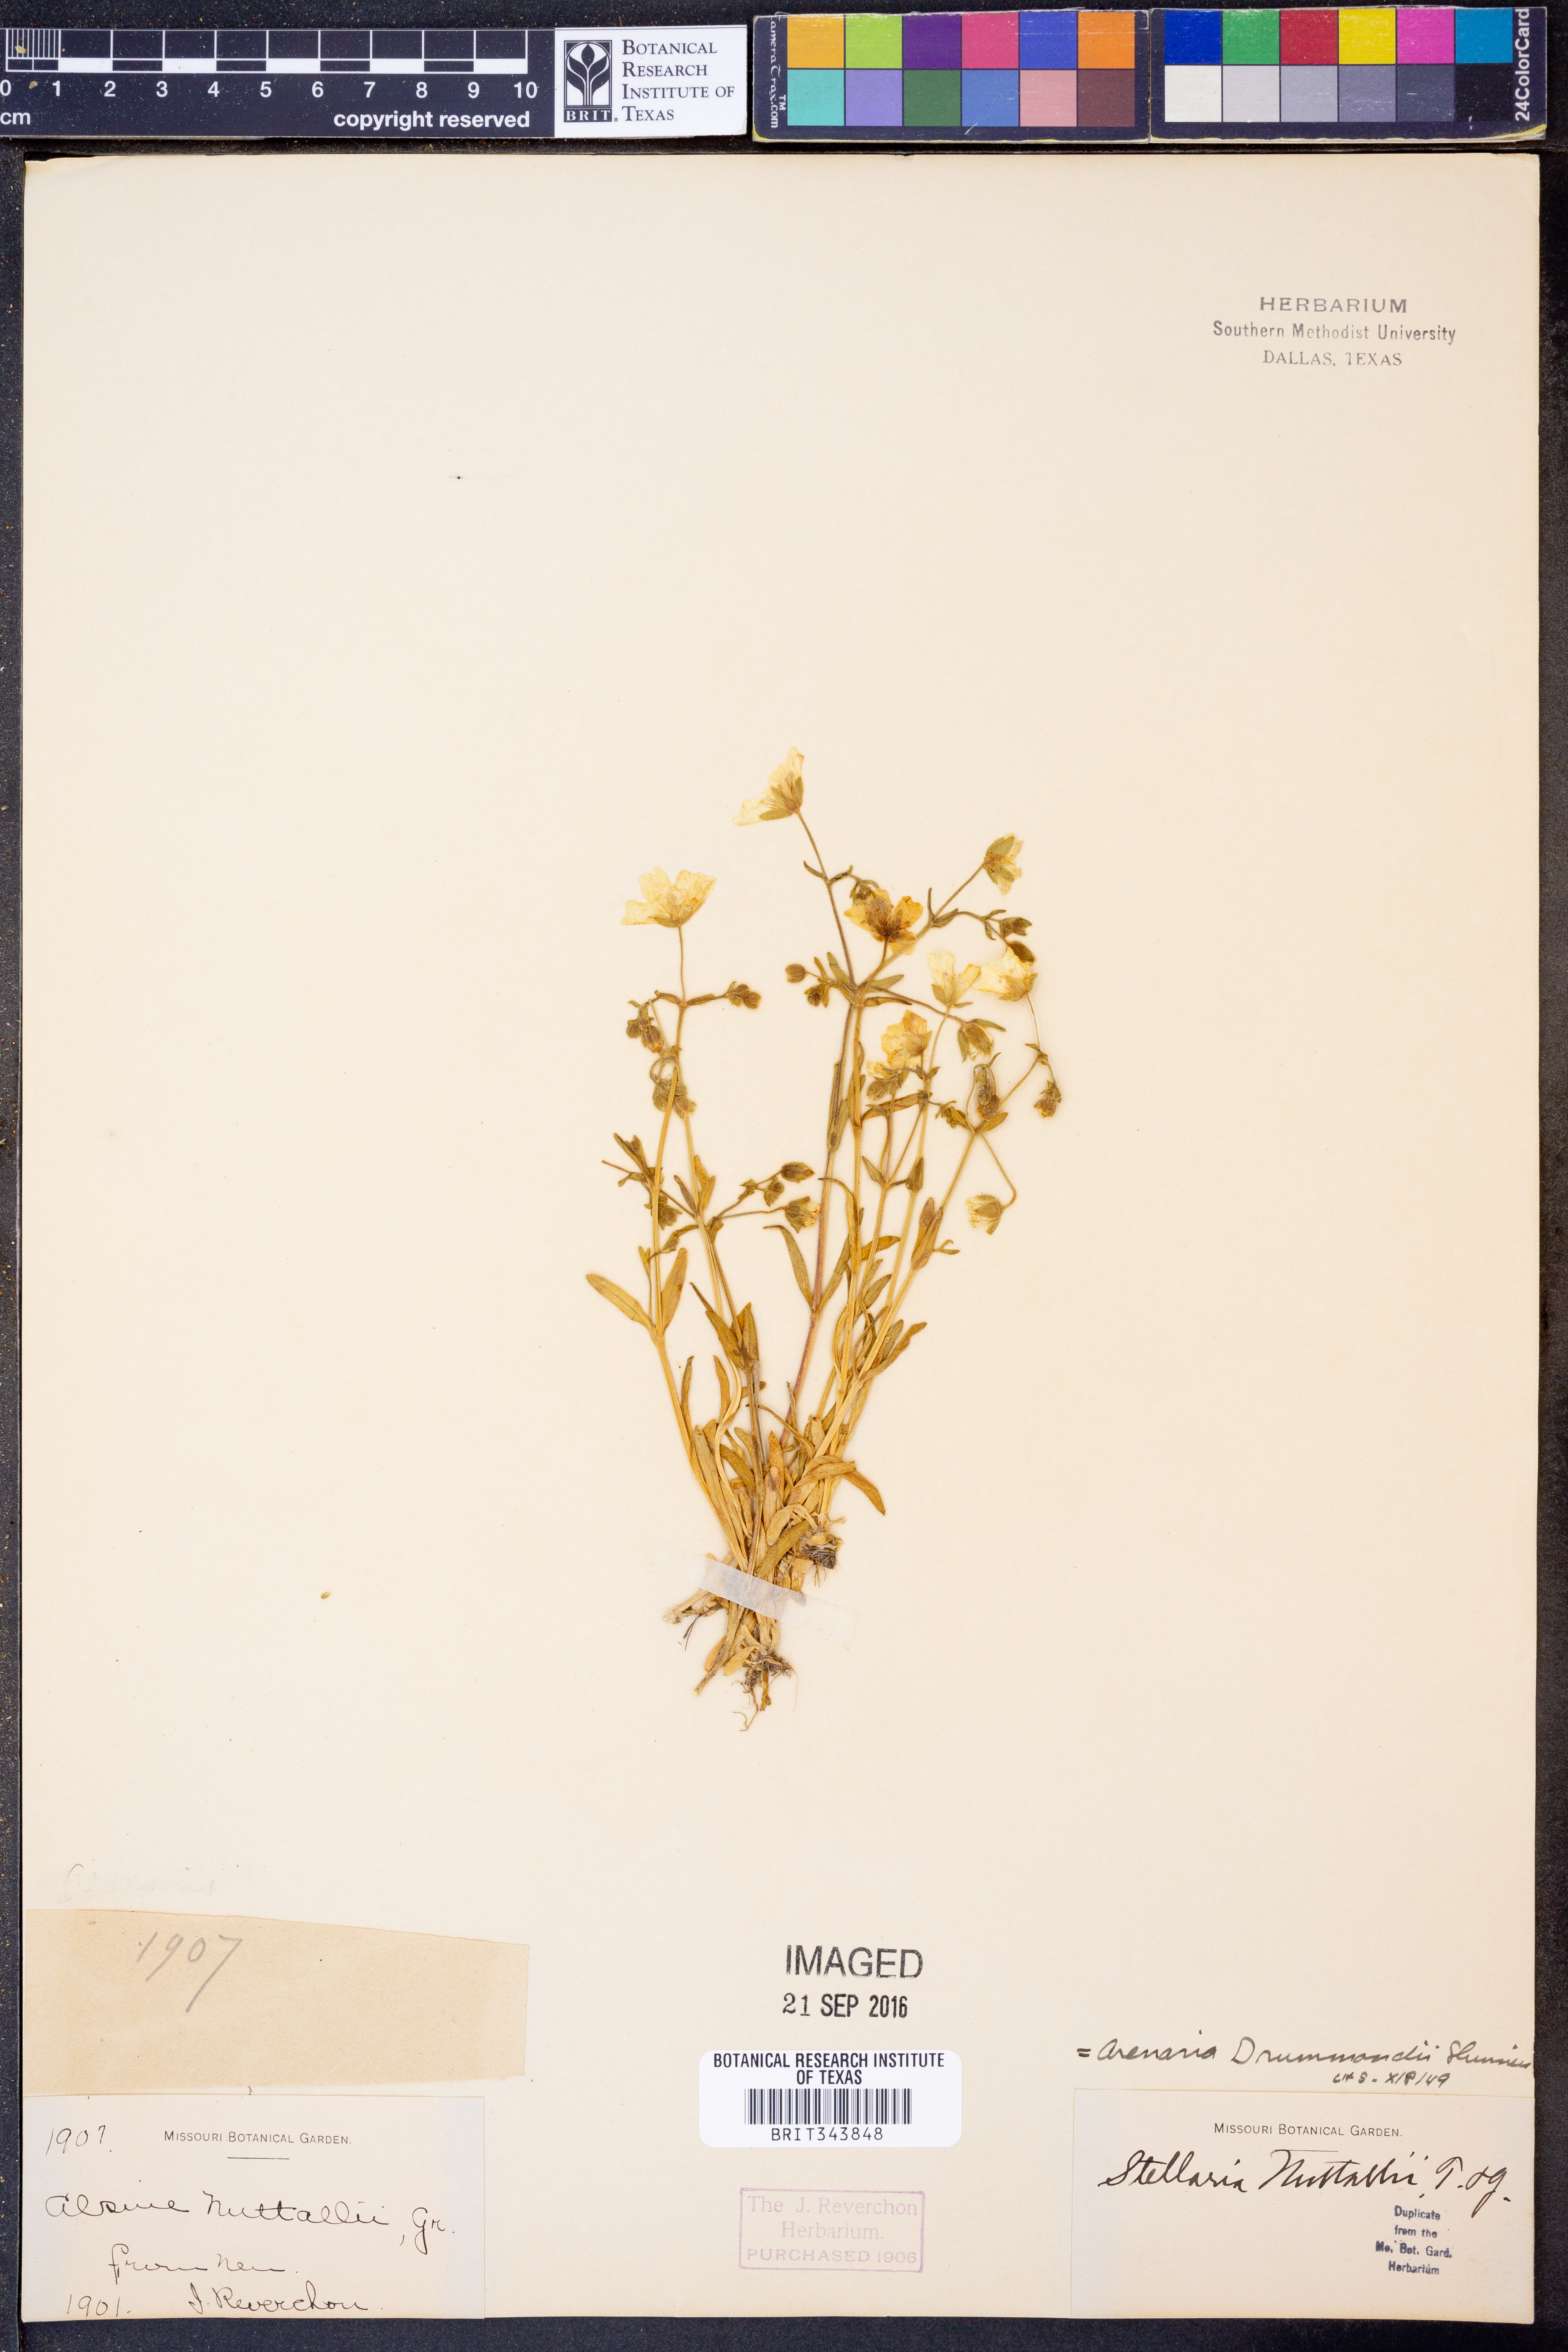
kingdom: Plantae
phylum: Tracheophyta
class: Magnoliopsida
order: Caryophyllales
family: Caryophyllaceae
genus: Geocarpon
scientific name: Geocarpon nuttallii
